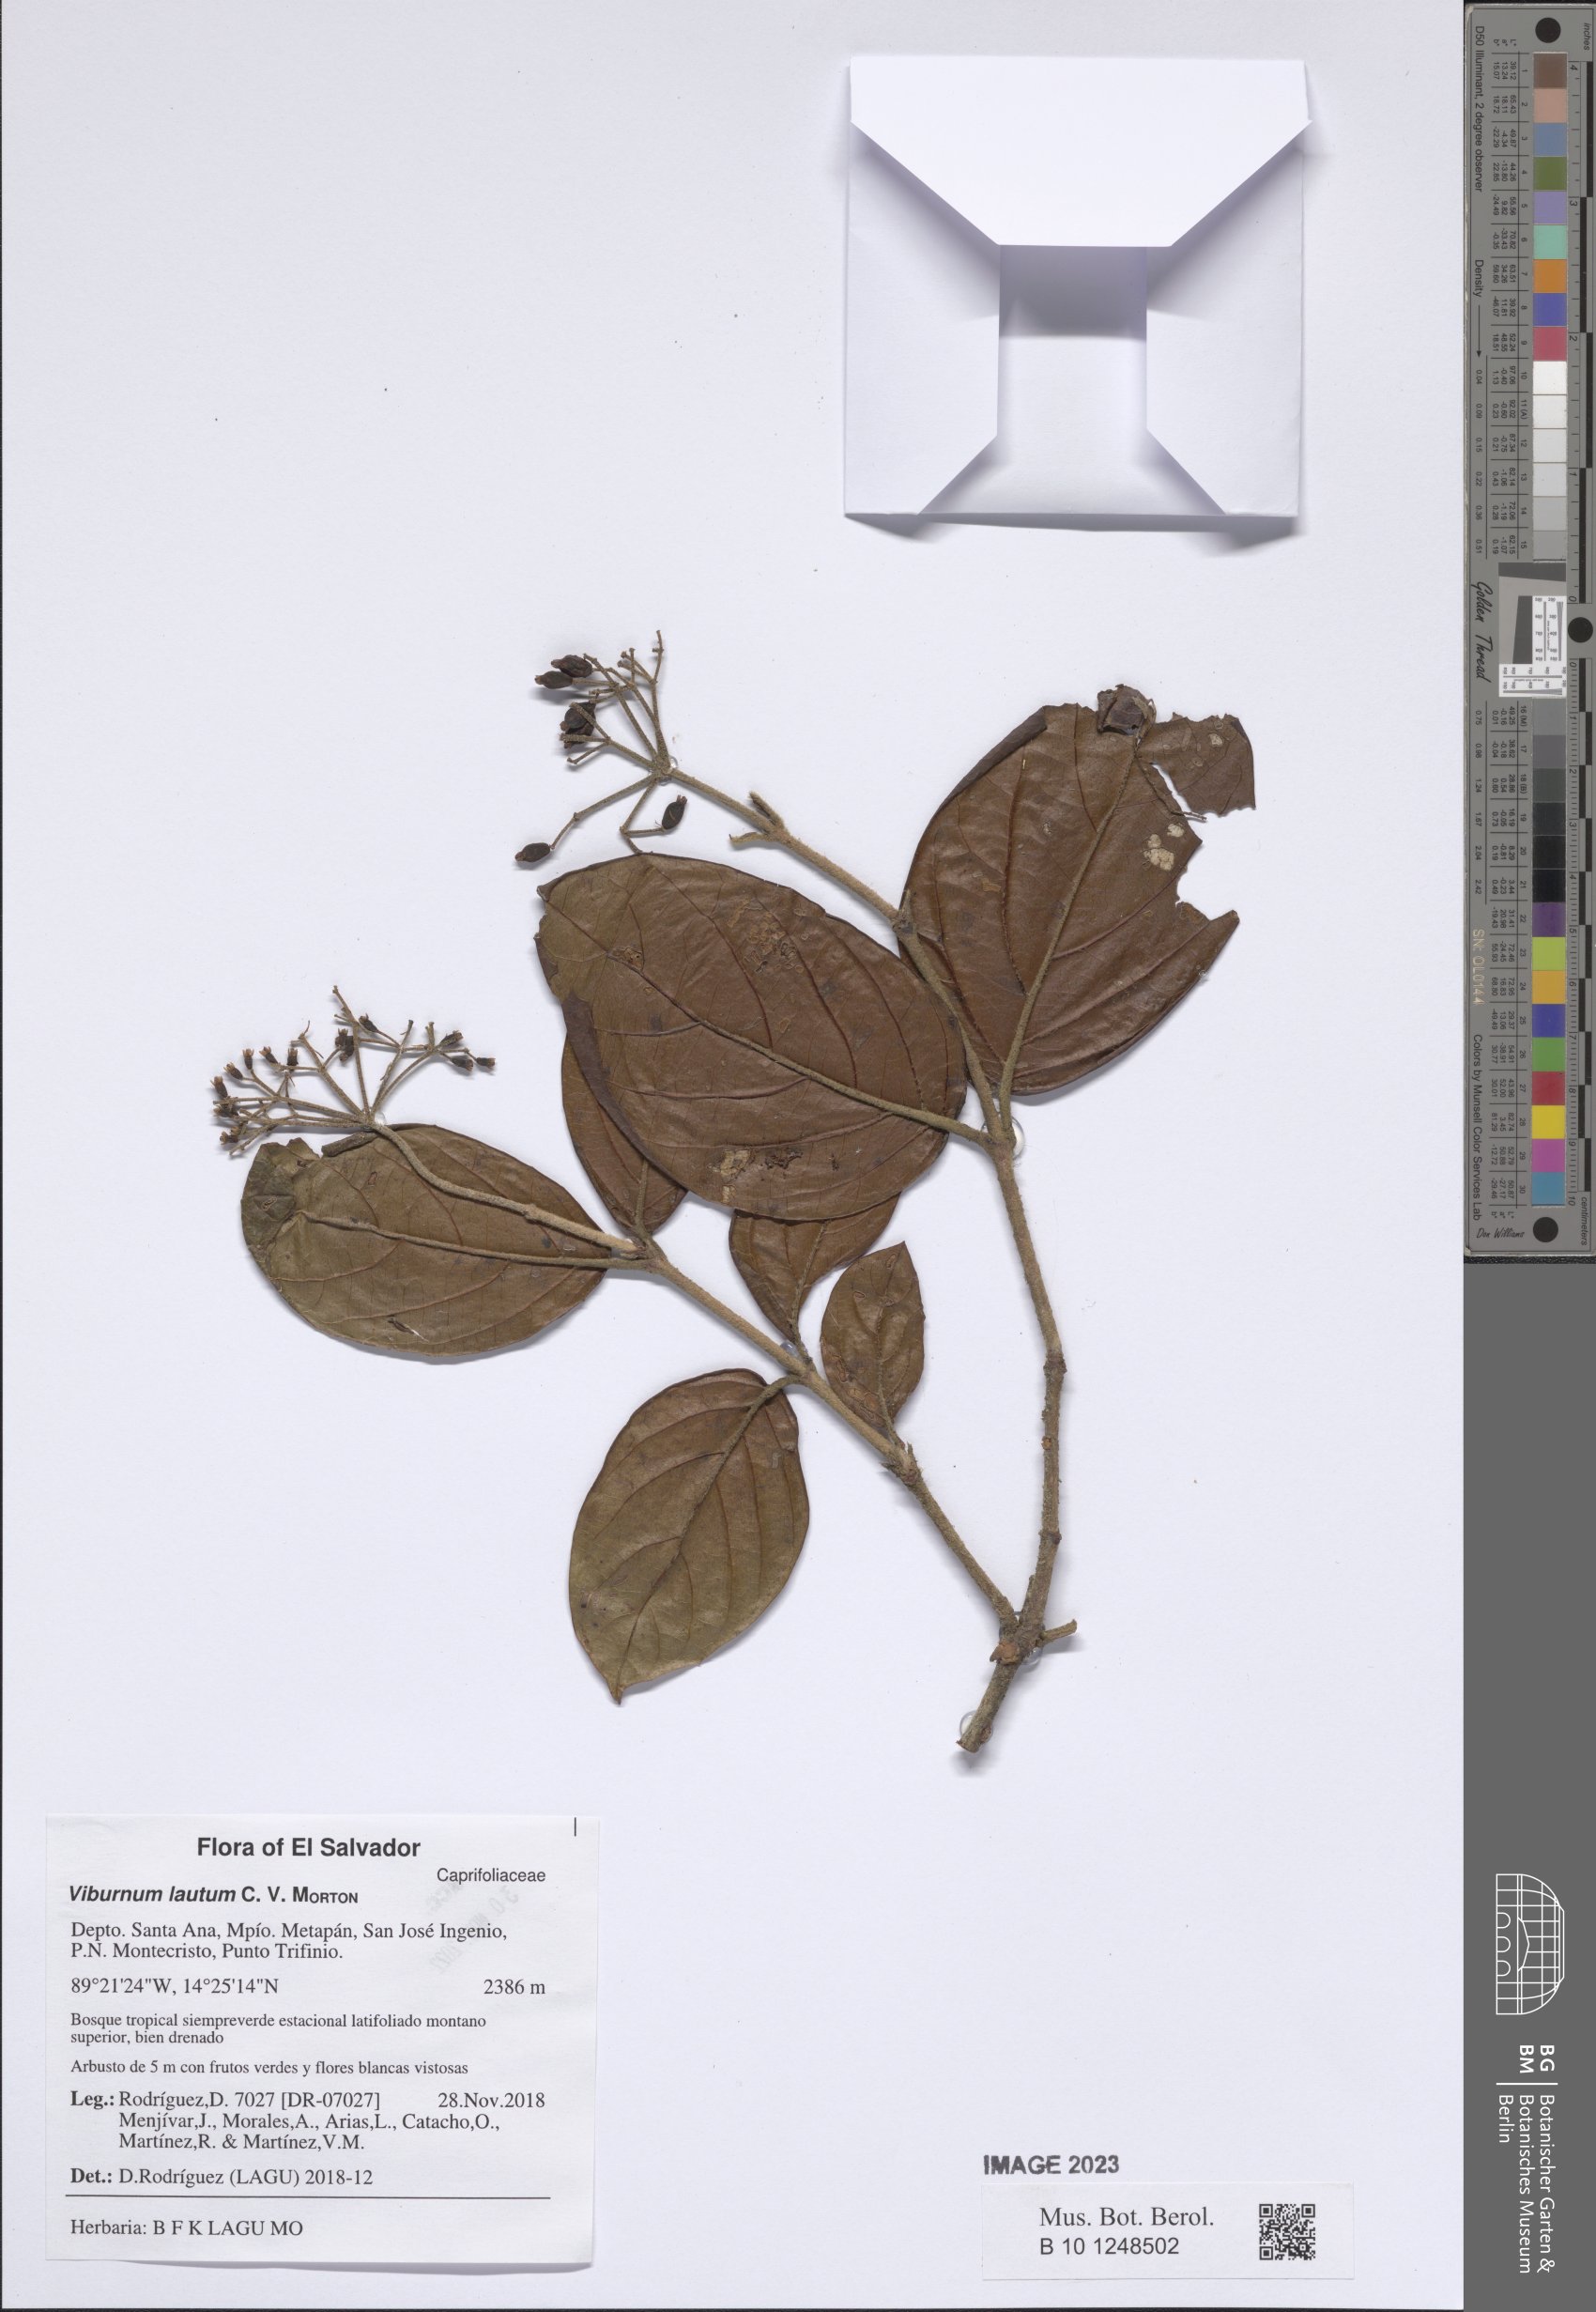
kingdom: Plantae
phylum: Tracheophyta
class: Magnoliopsida
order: Dipsacales
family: Viburnaceae
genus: Viburnum
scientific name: Viburnum lautum
